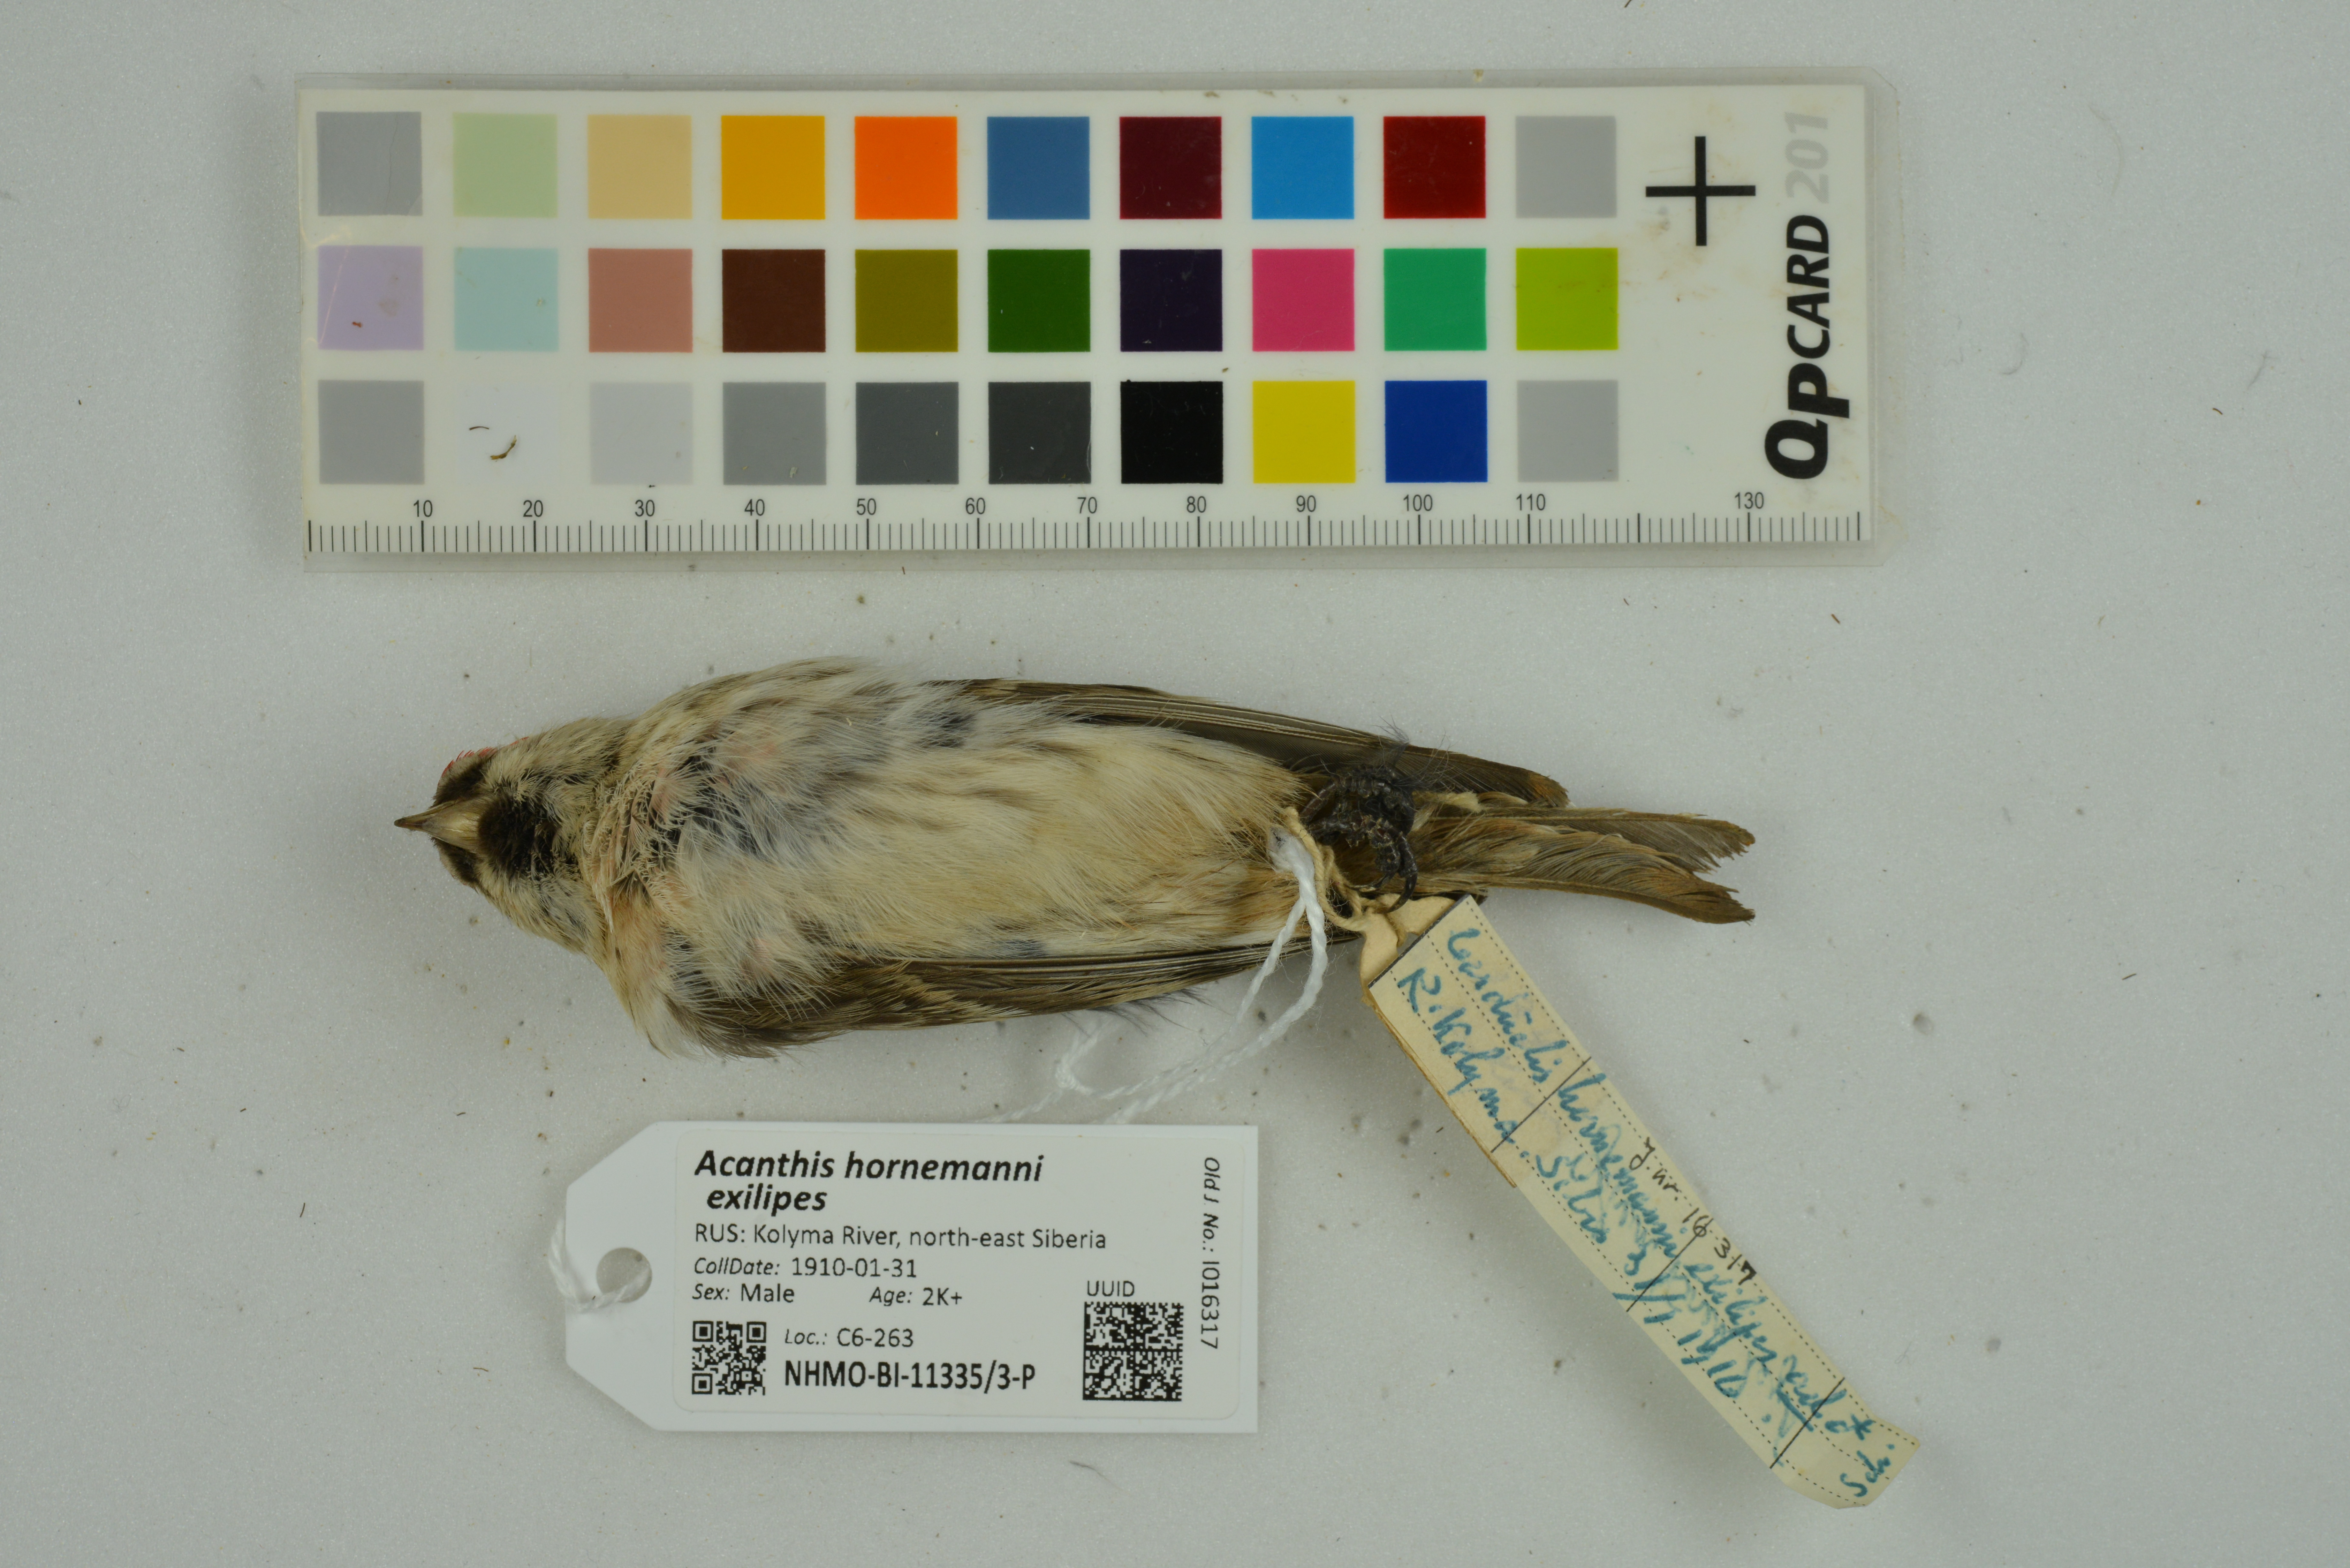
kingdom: Animalia
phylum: Chordata
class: Aves
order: Passeriformes
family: Fringillidae
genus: Acanthis
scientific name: Acanthis hornemanni
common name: Arctic redpoll
